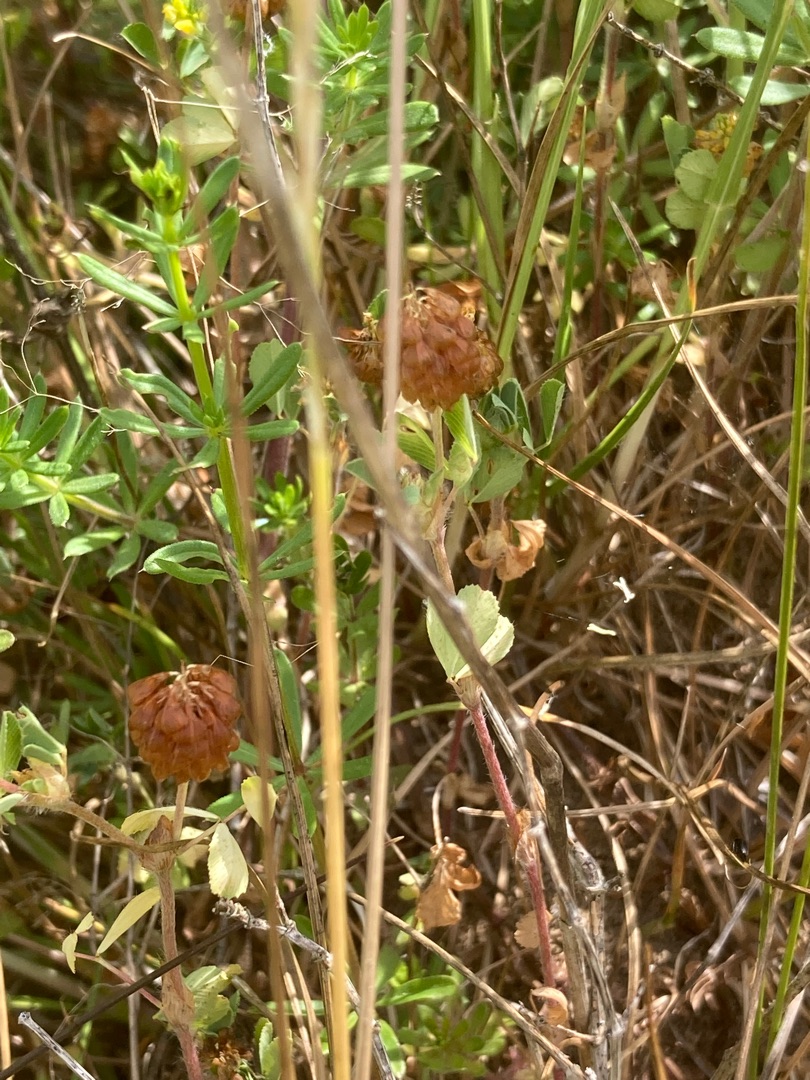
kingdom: Plantae
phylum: Tracheophyta
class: Magnoliopsida
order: Fabales
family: Fabaceae
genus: Trifolium
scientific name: Trifolium campestre
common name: Gul kløver
